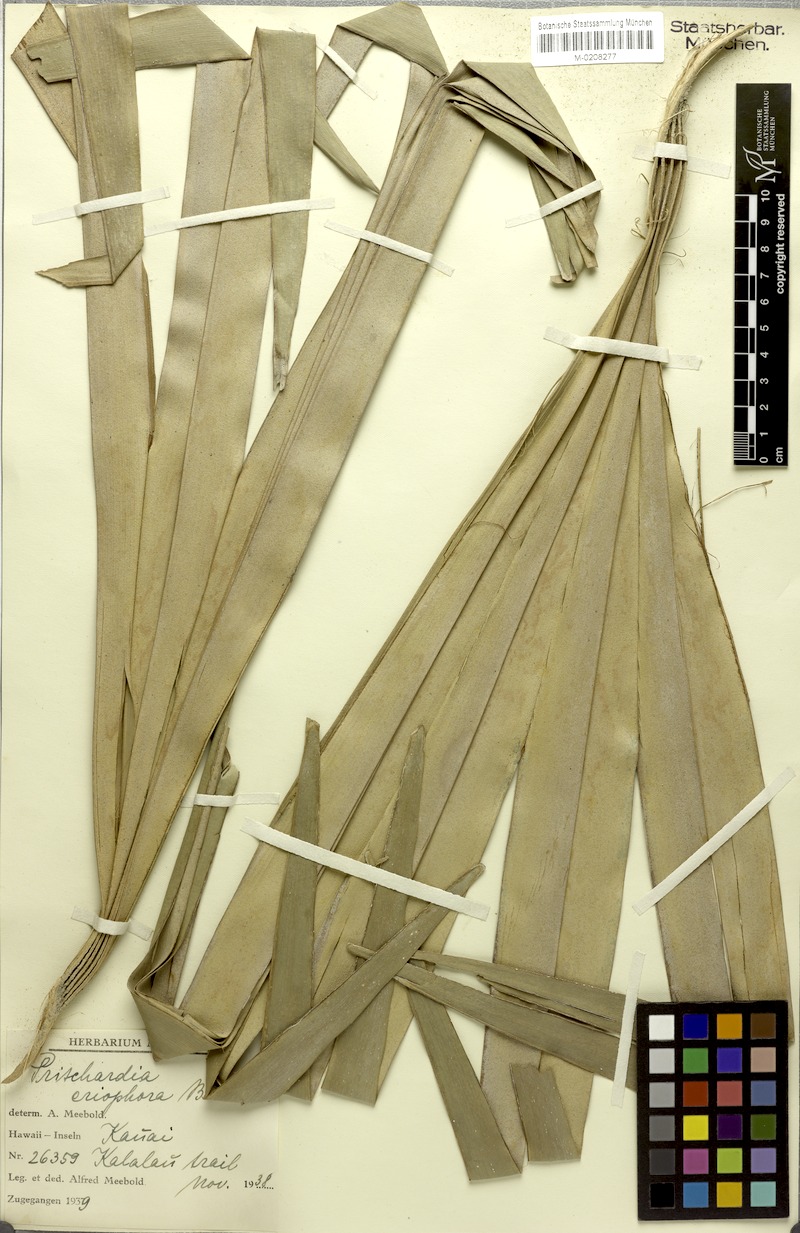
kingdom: Plantae
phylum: Tracheophyta
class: Liliopsida
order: Arecales
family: Arecaceae
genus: Pritchardia
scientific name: Pritchardia minor
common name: Alakai swamp pritchardia
